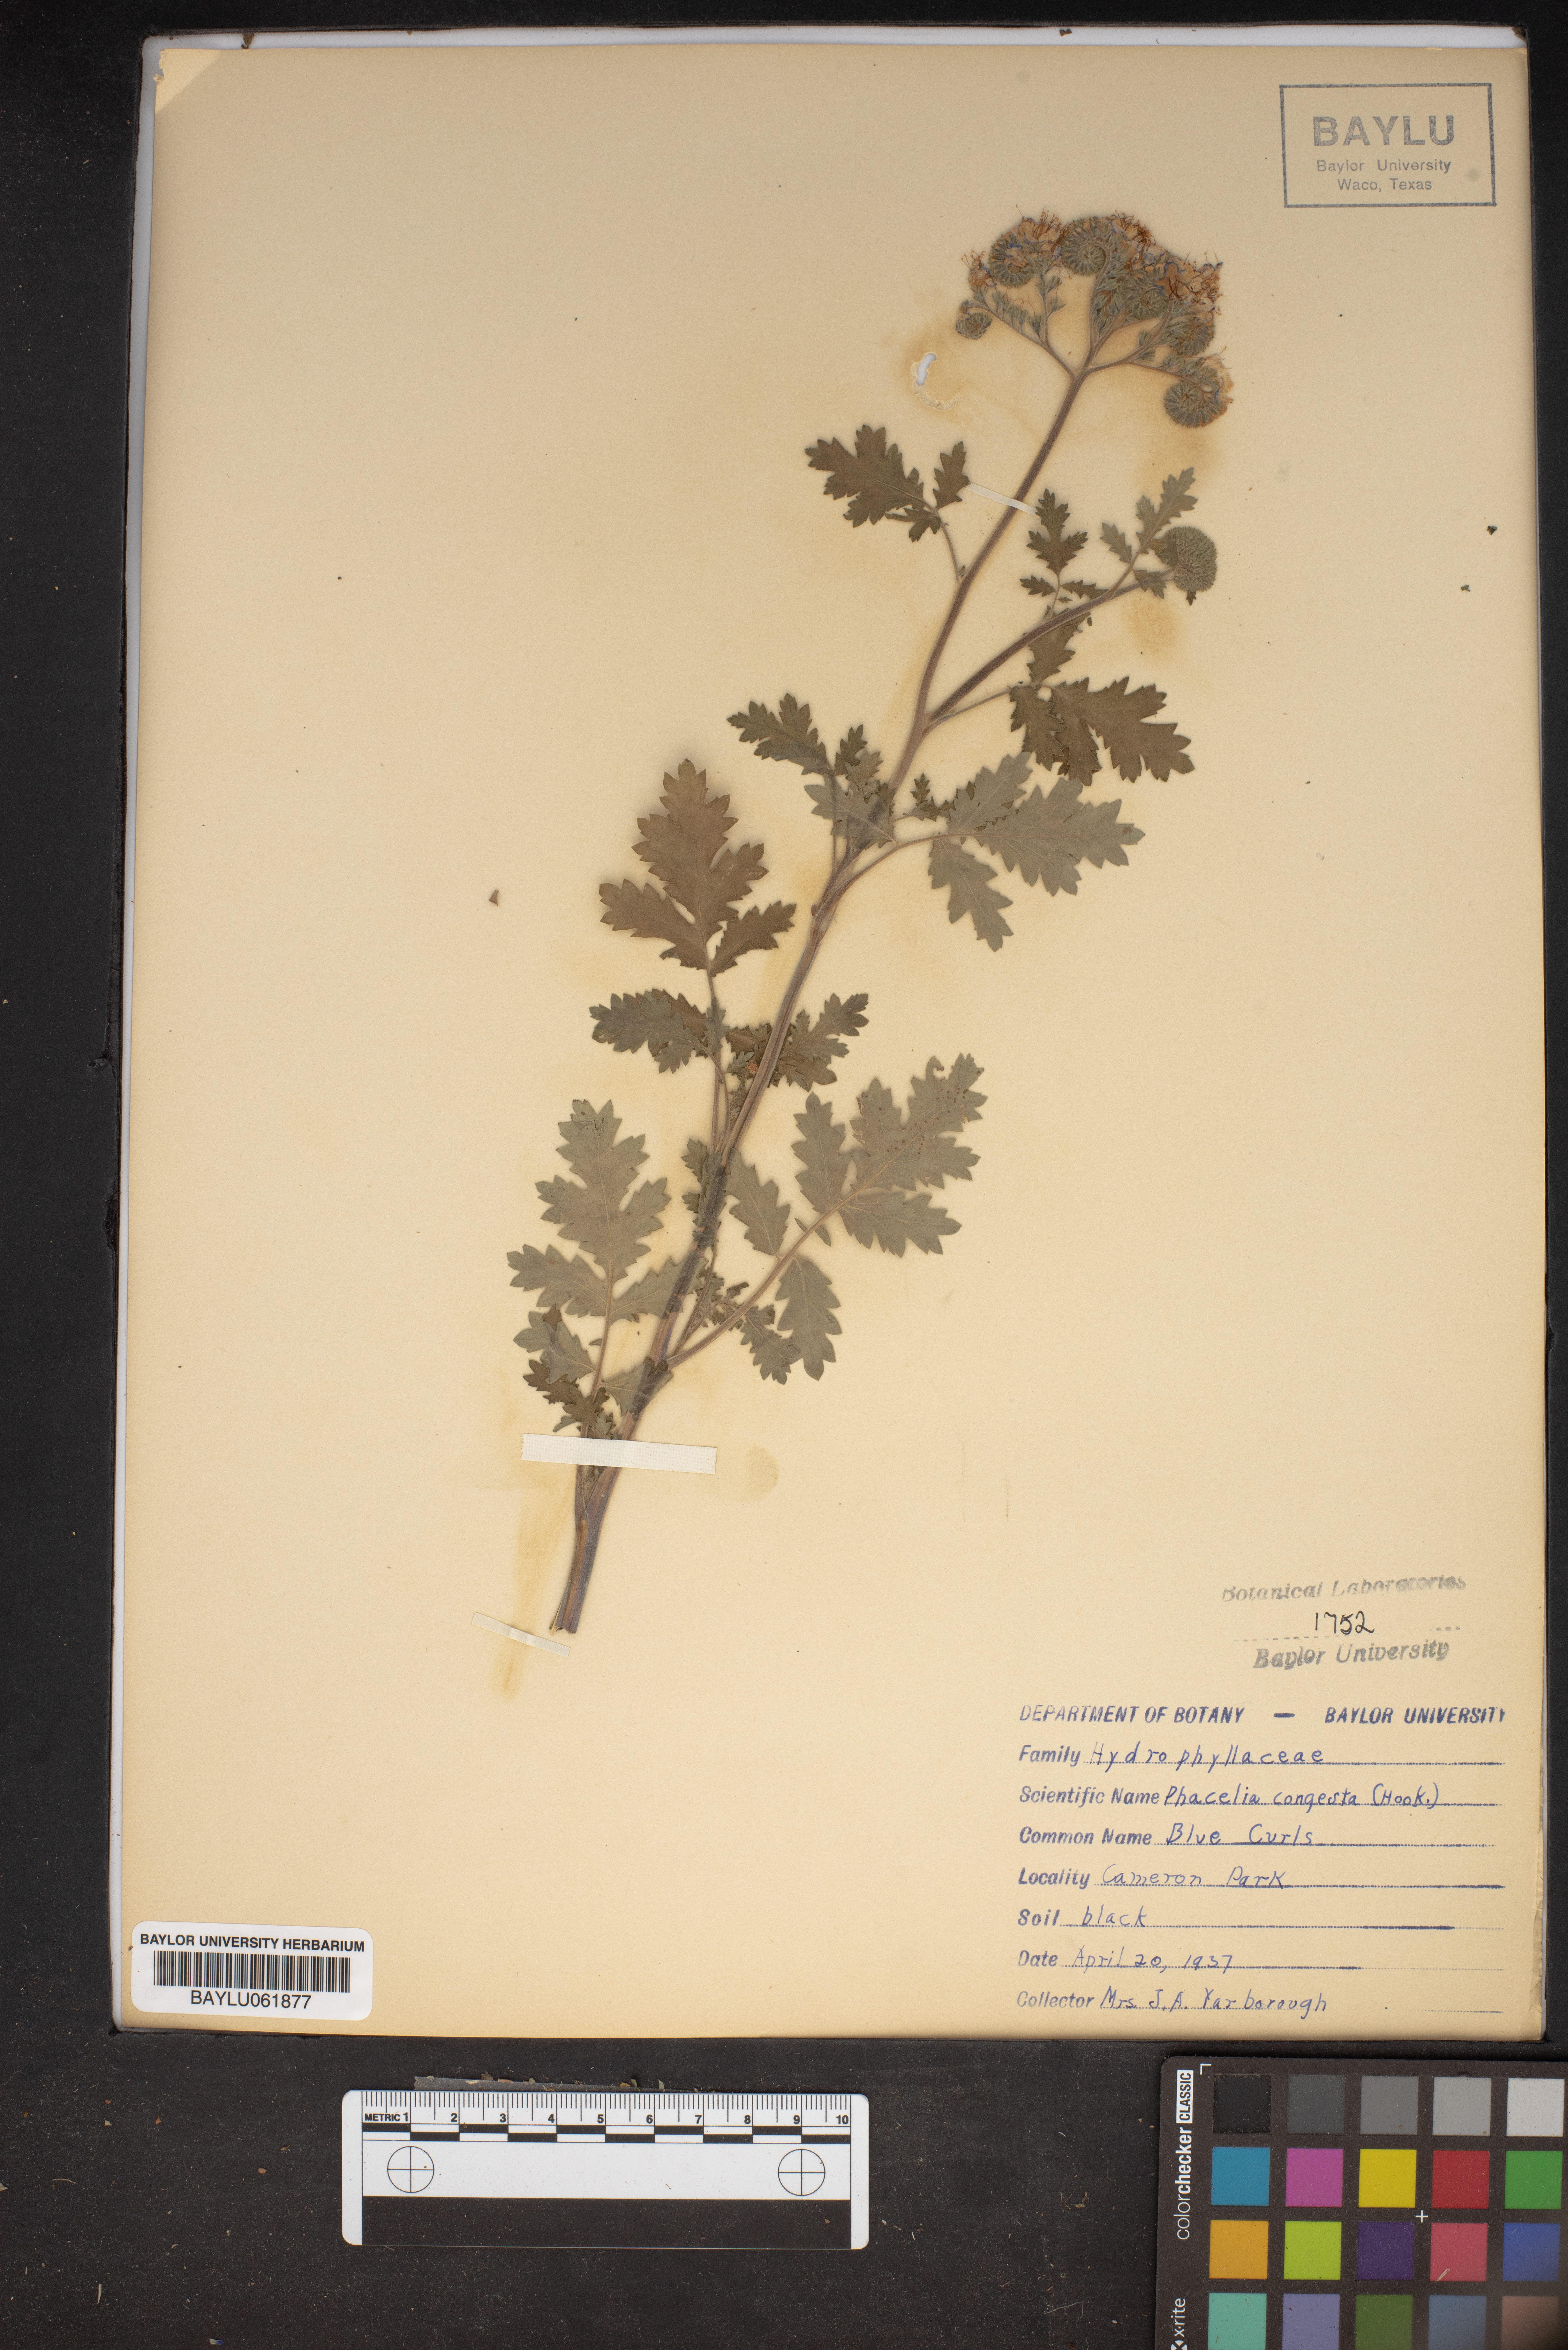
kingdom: Plantae
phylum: Tracheophyta
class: Magnoliopsida
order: Boraginales
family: Hydrophyllaceae
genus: Phacelia
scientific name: Phacelia congesta
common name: Blue curls
